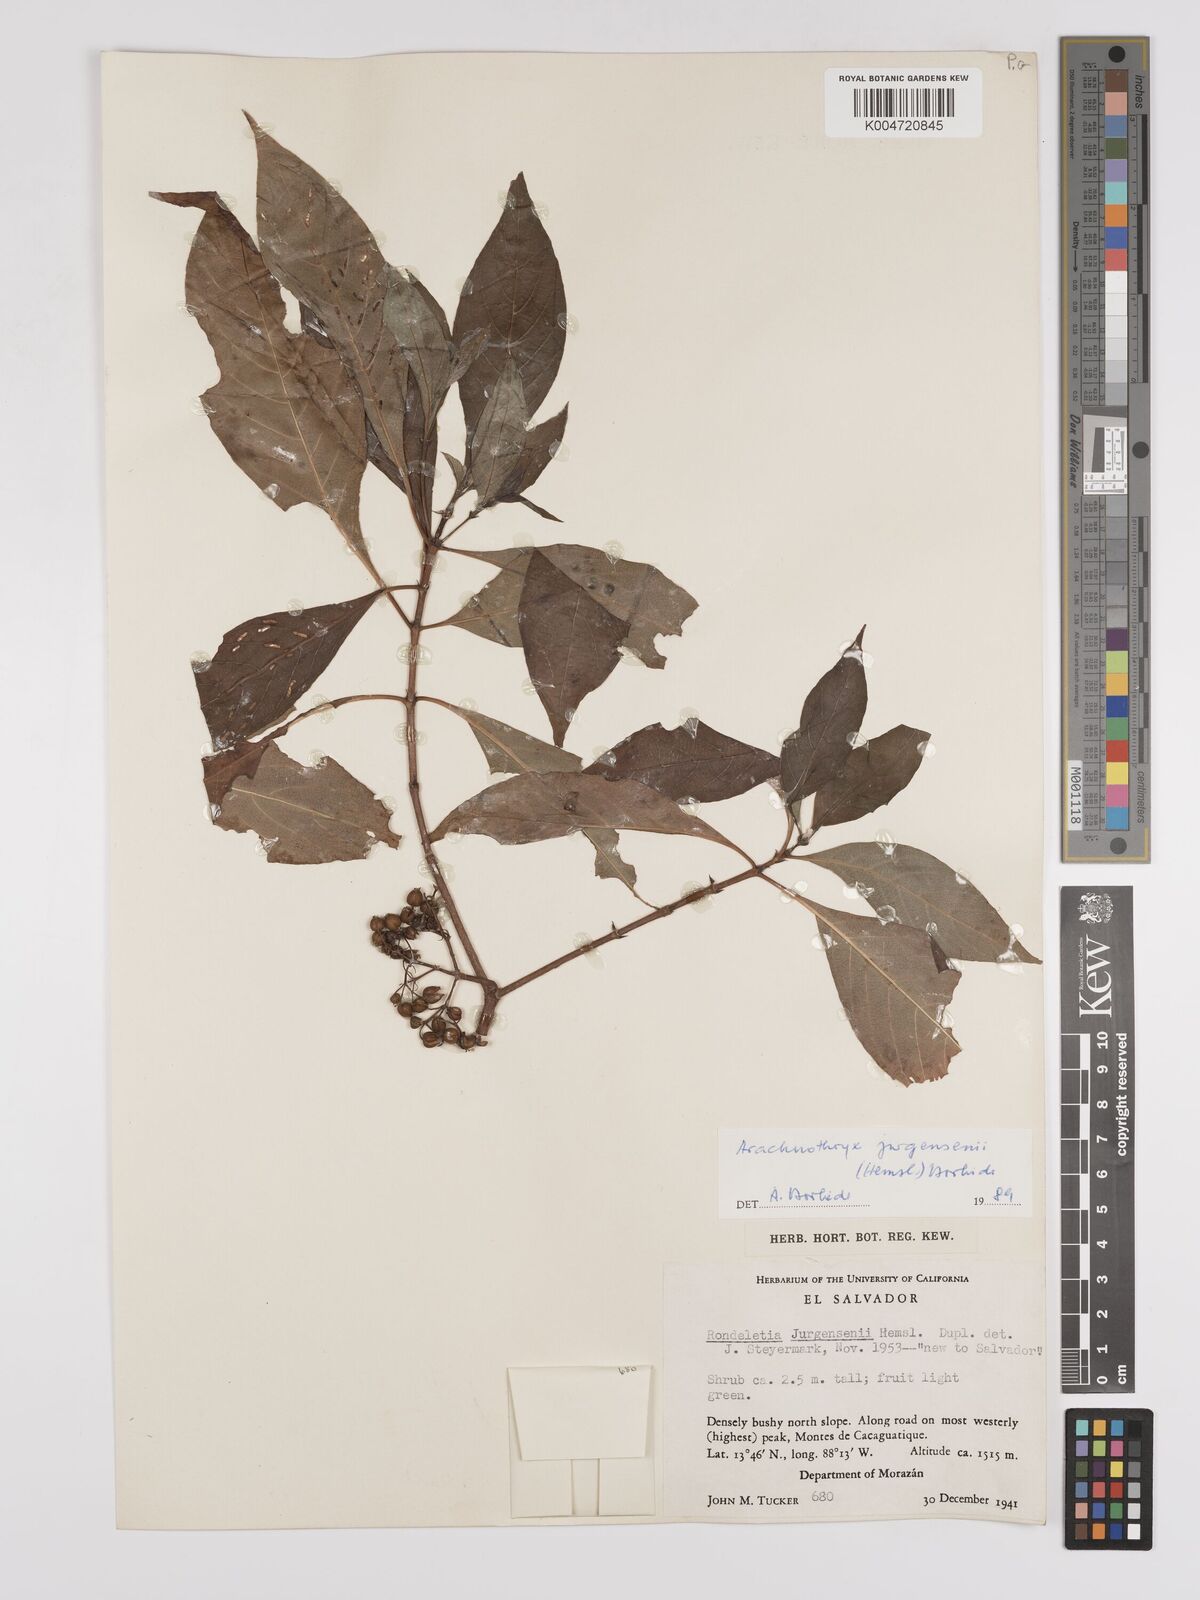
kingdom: Plantae
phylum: Tracheophyta
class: Magnoliopsida
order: Gentianales
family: Rubiaceae
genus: Arachnothryx
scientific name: Arachnothryx jurgensenii
